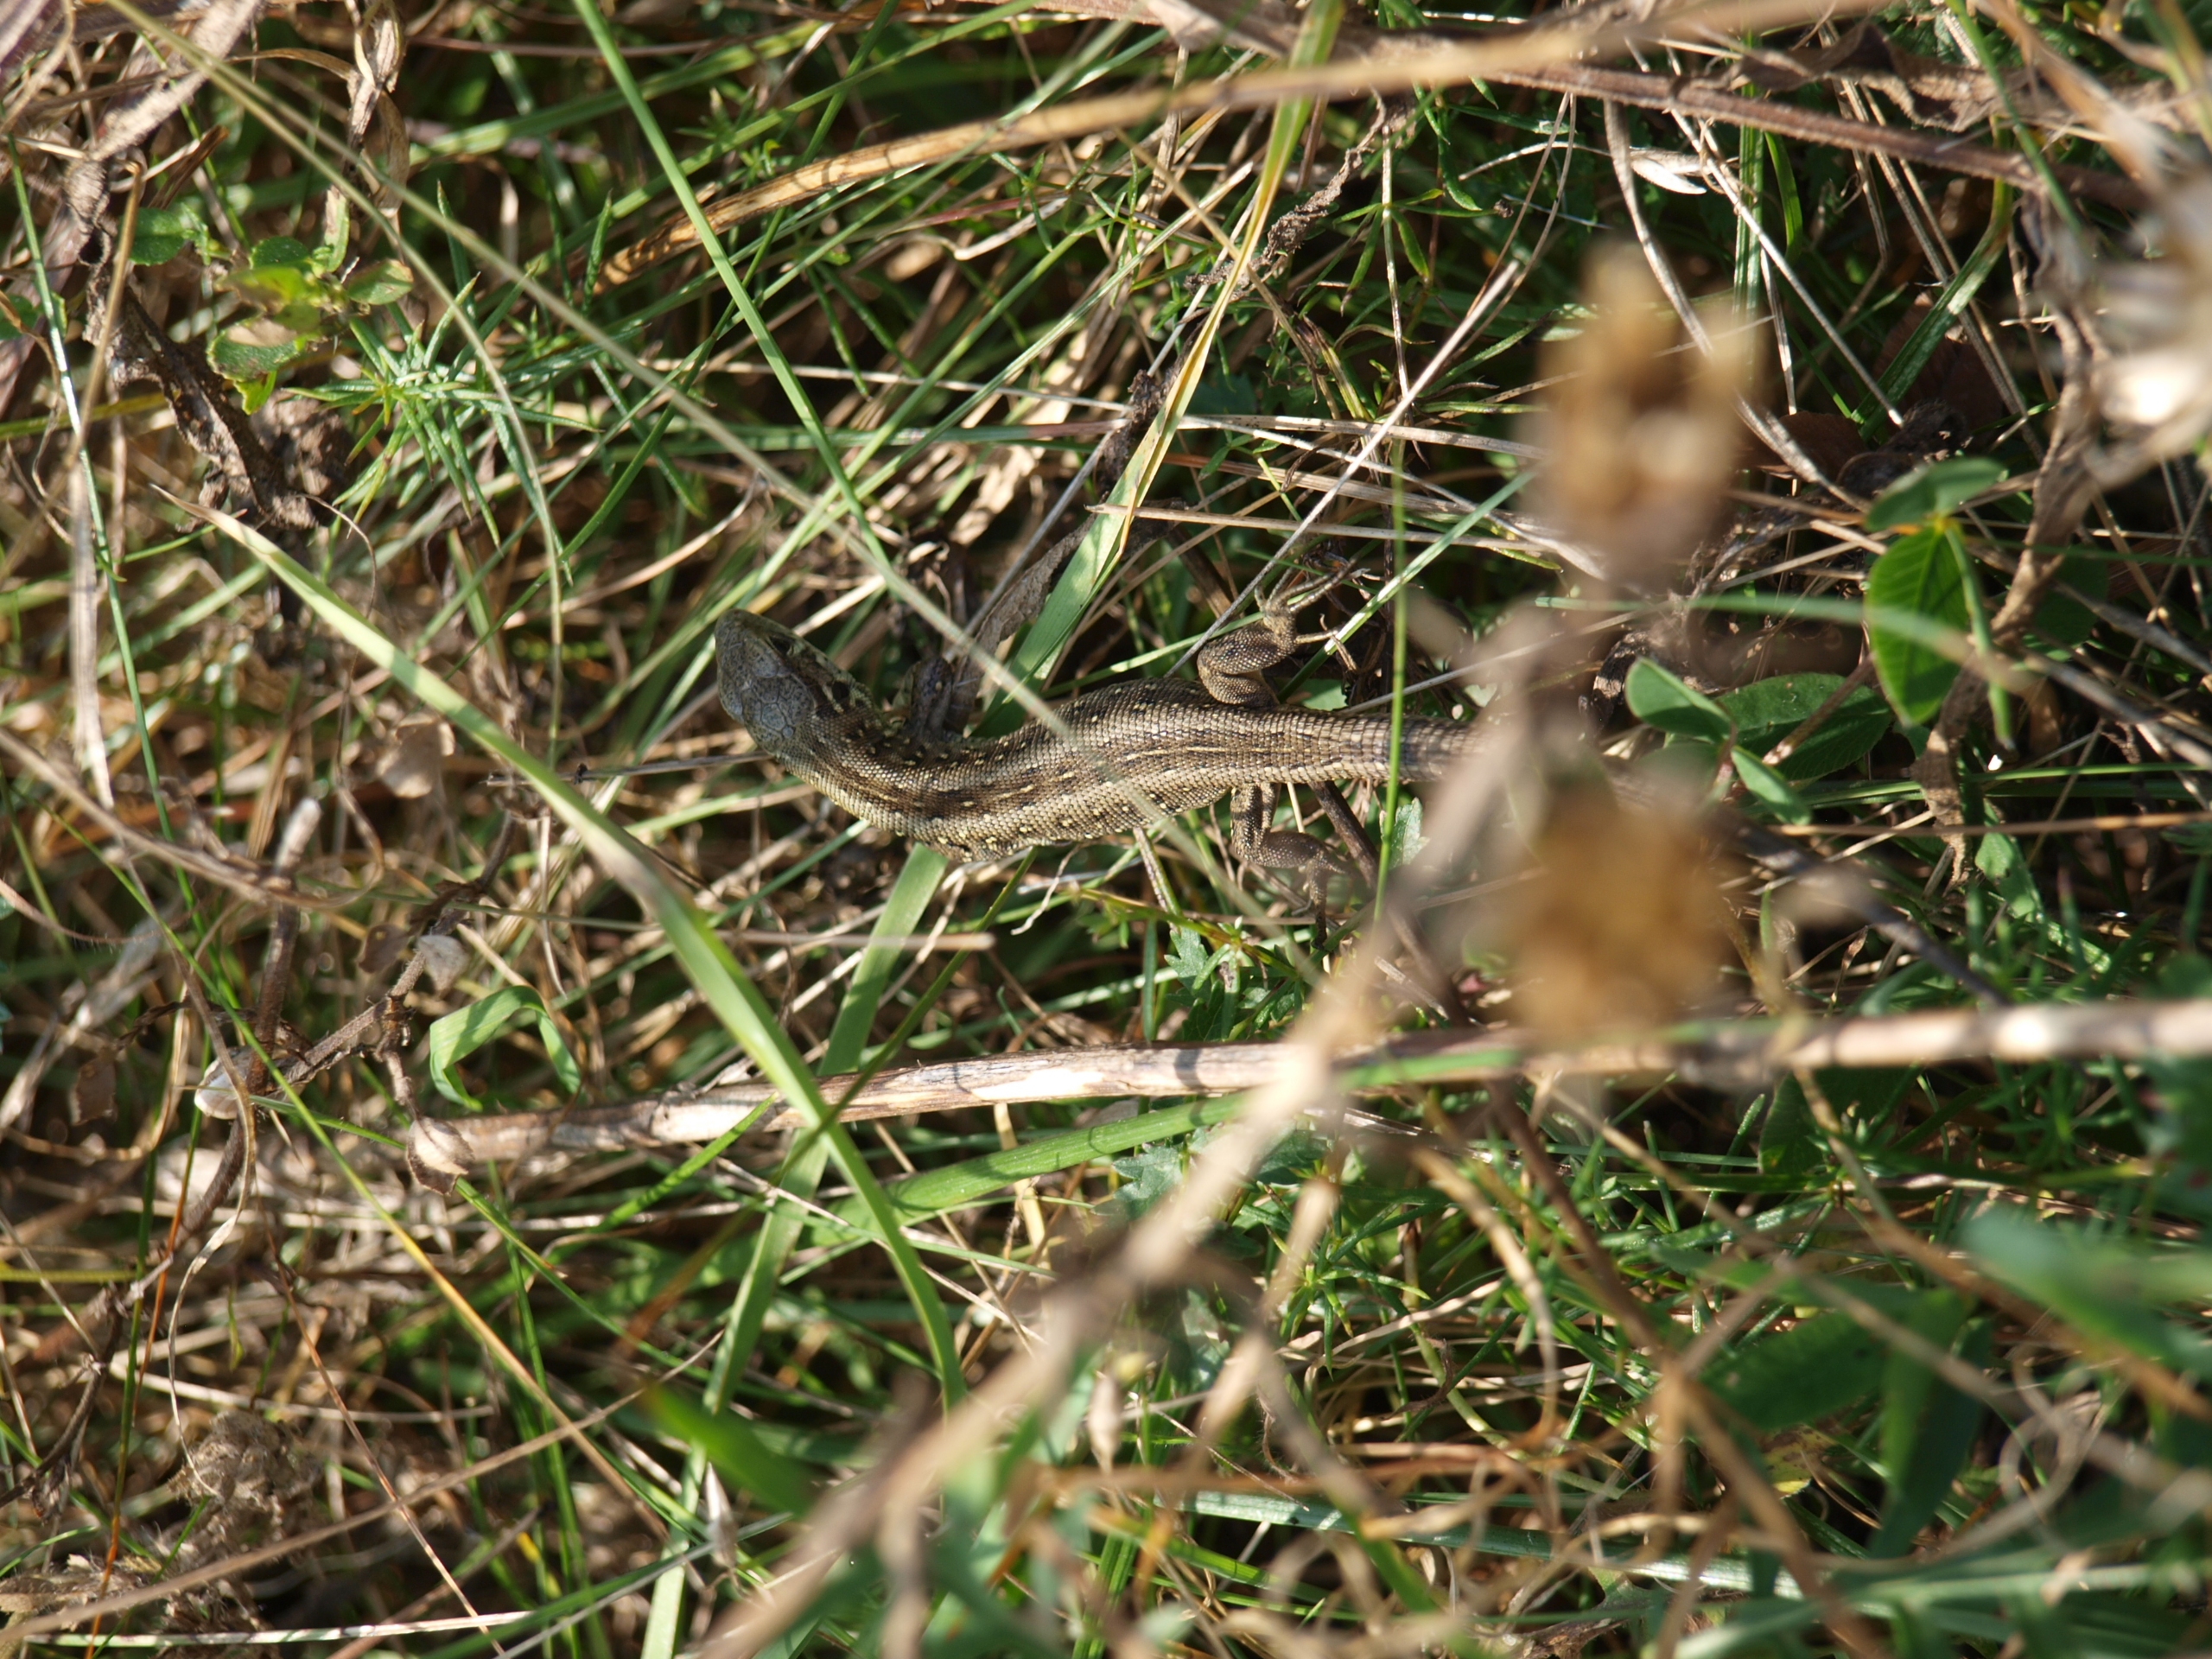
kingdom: Animalia
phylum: Chordata
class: Squamata
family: Lacertidae
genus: Lacerta
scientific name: Lacerta agilis
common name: Markfirben
